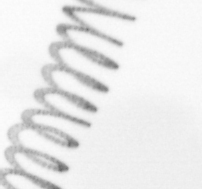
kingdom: Chromista
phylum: Ochrophyta
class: Bacillariophyceae
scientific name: Bacillariophyceae
